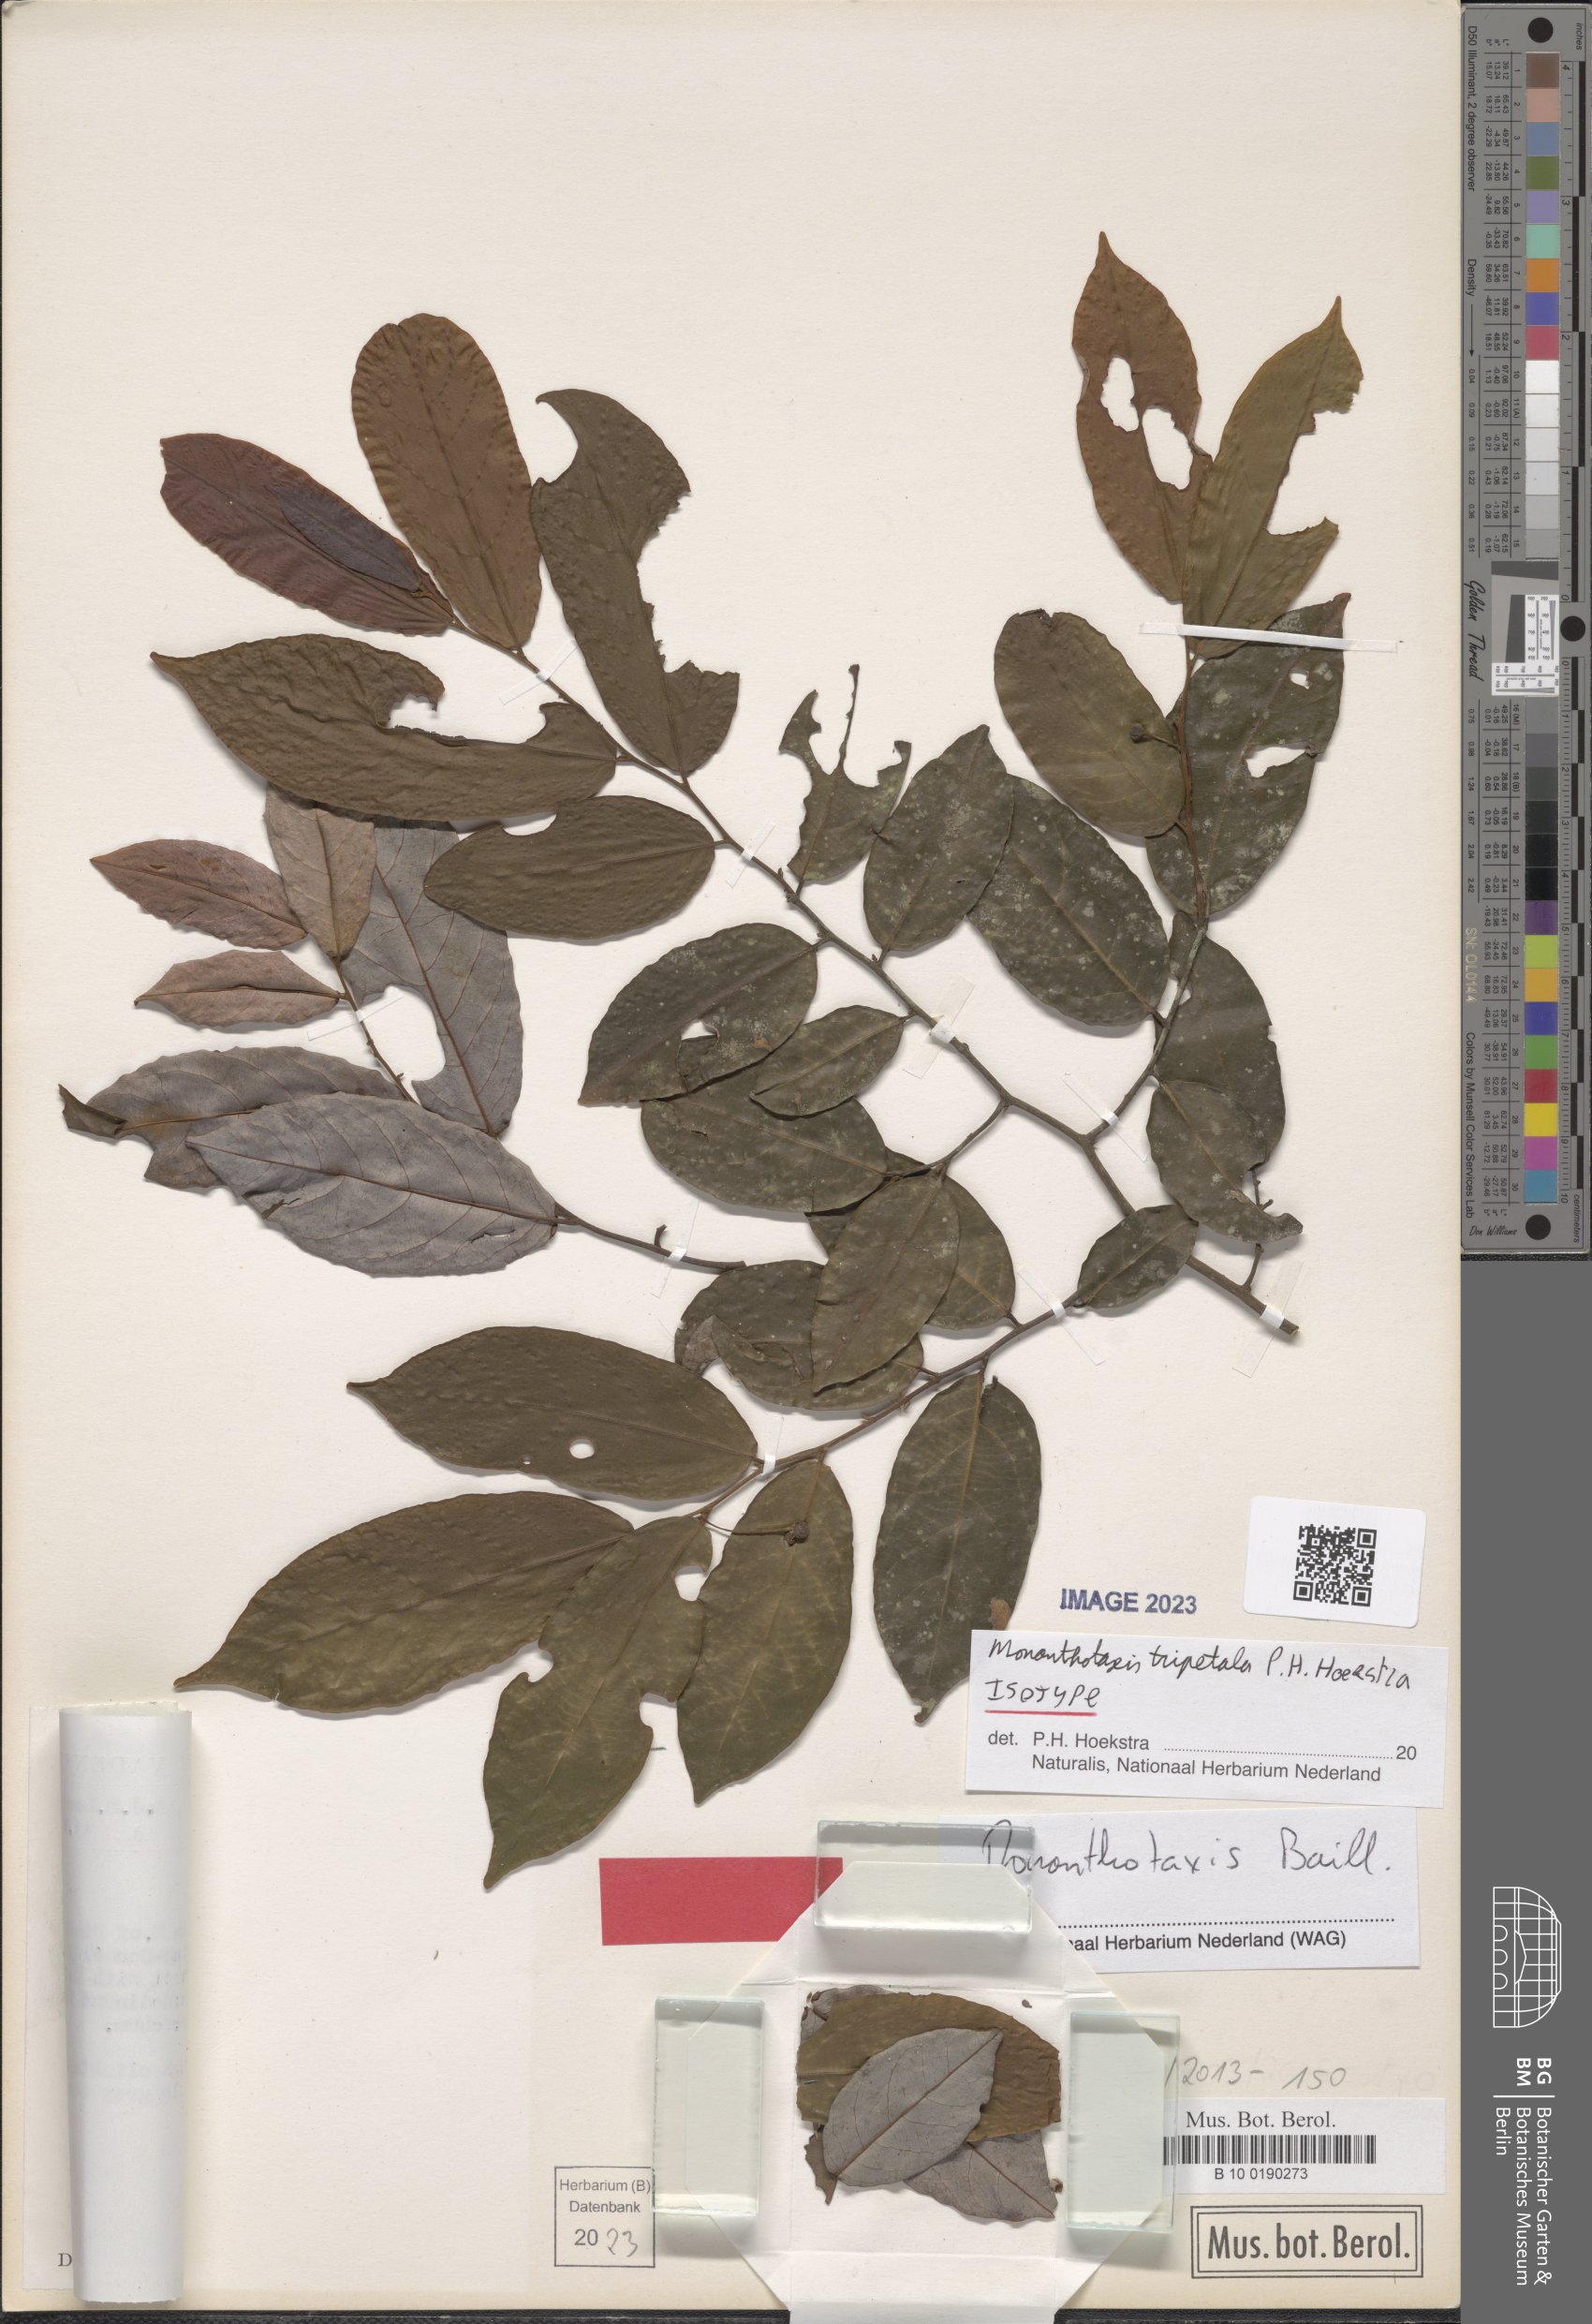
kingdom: Plantae
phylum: Tracheophyta
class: Magnoliopsida
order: Magnoliales
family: Annonaceae
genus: Monanthotaxis
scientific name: Monanthotaxis tripetala
